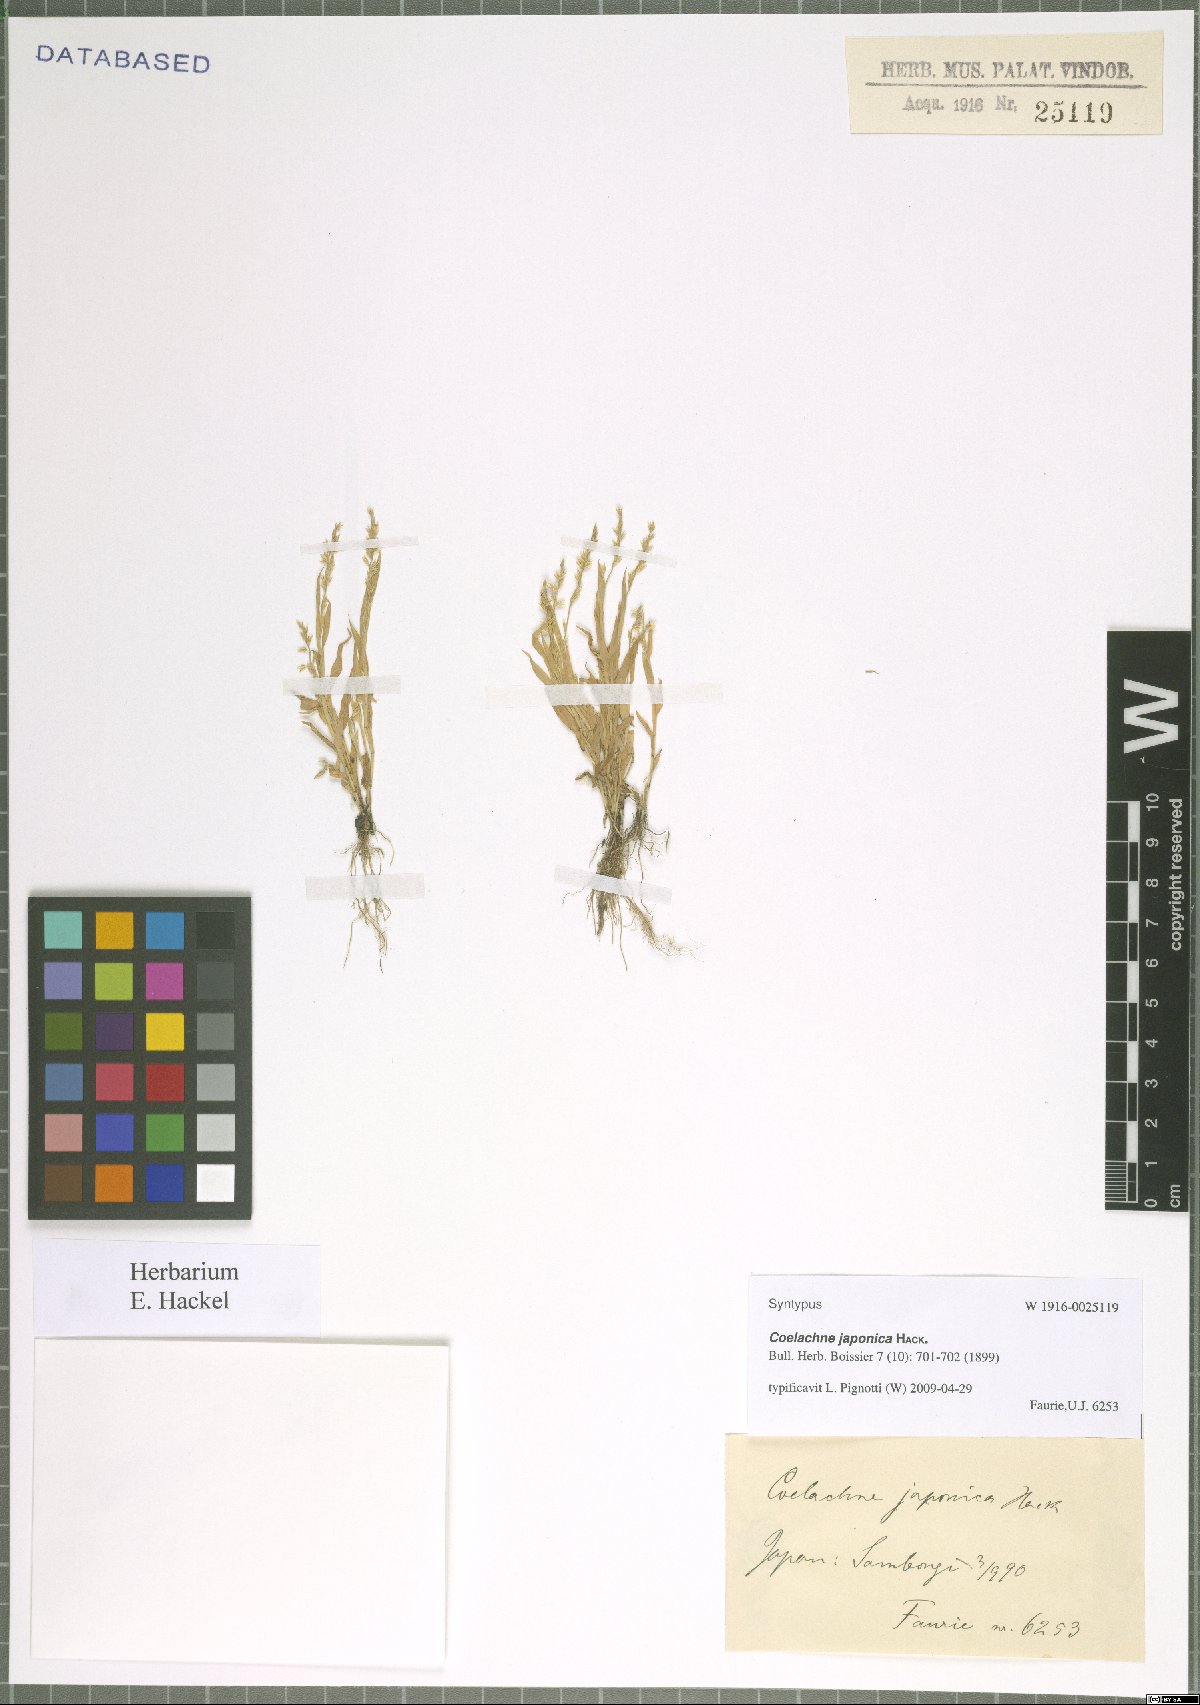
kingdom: Plantae
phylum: Tracheophyta
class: Liliopsida
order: Poales
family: Poaceae
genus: Coelachne
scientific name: Coelachne japonica
